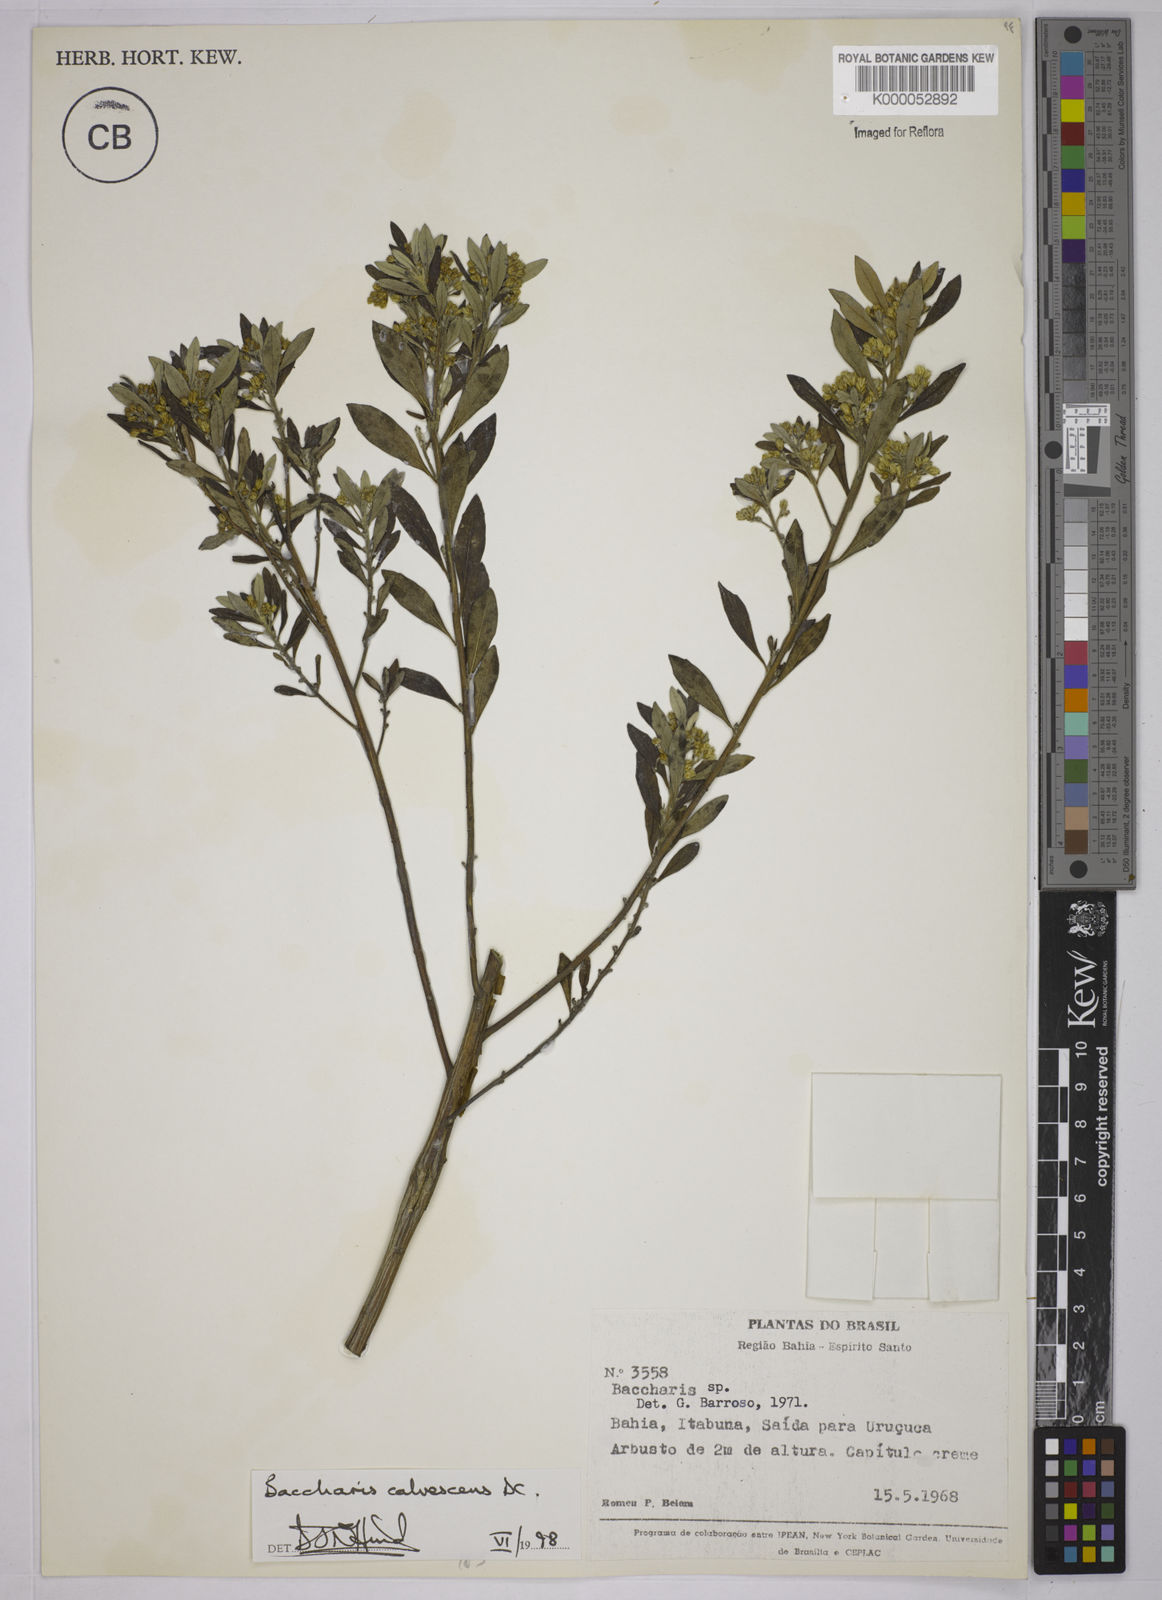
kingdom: Plantae
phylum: Tracheophyta
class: Magnoliopsida
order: Asterales
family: Asteraceae
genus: Baccharis
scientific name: Baccharis calvescens
